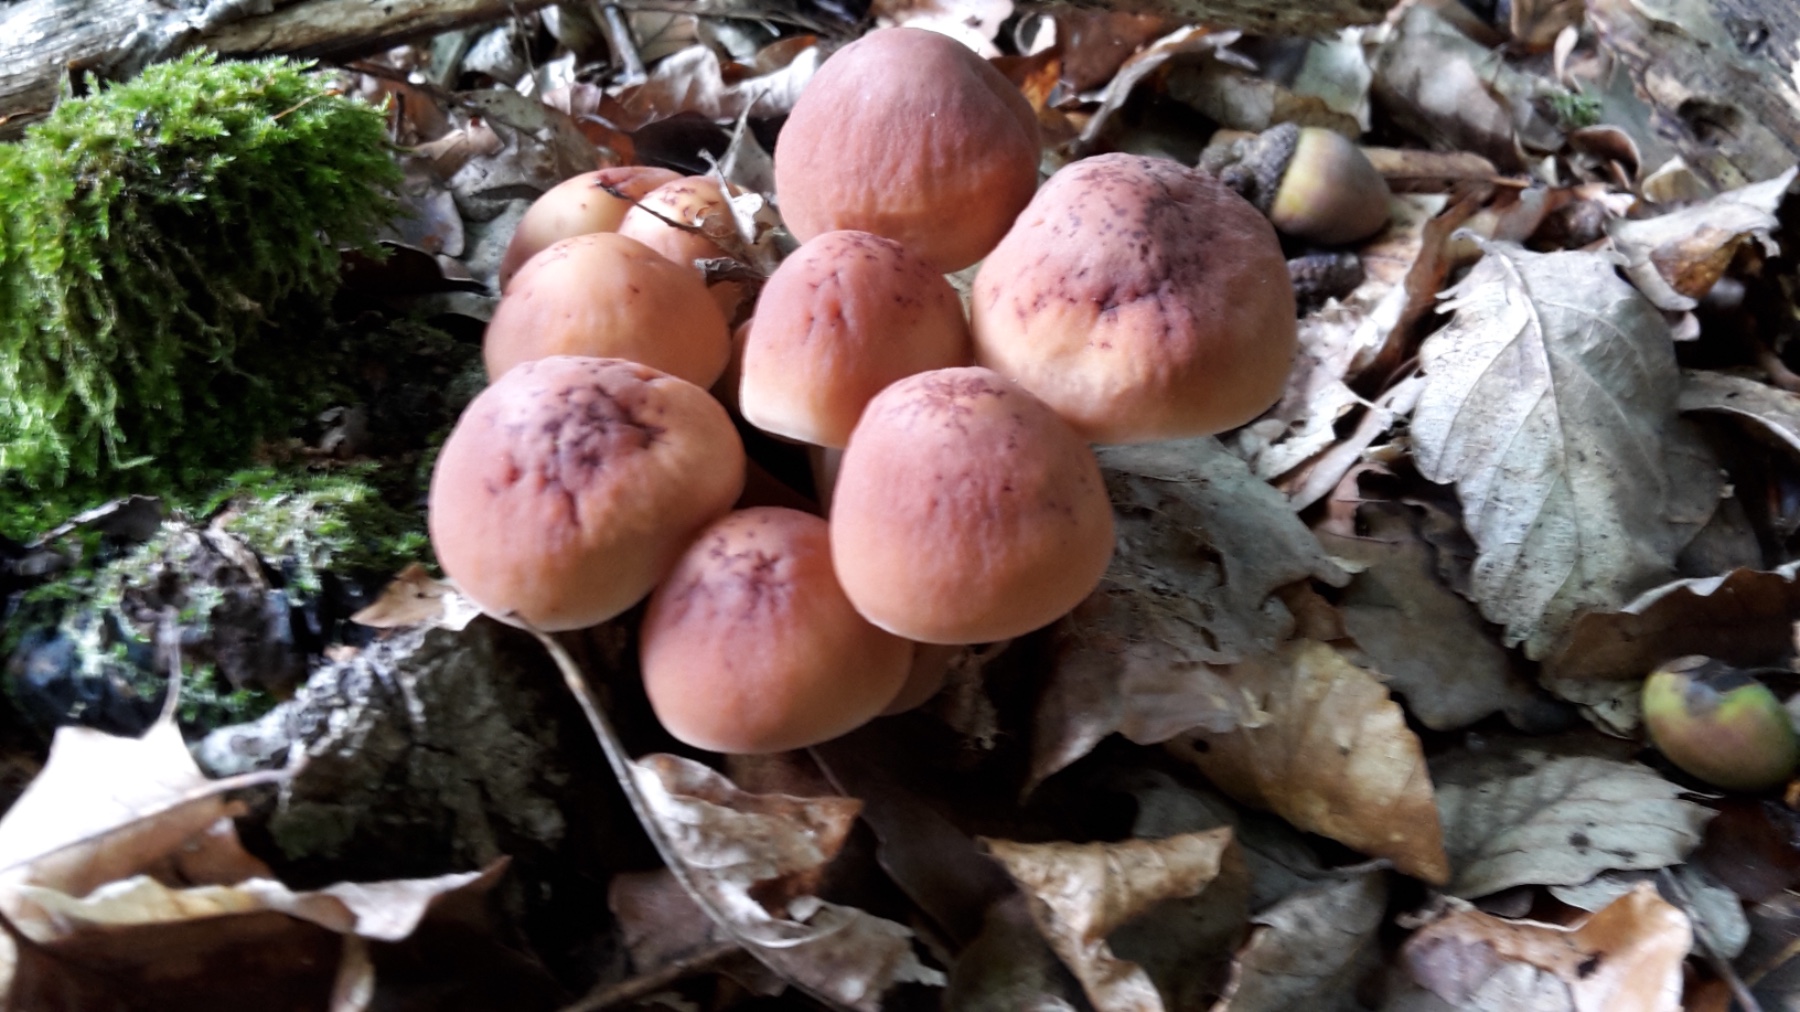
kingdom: Fungi
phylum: Basidiomycota
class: Agaricomycetes
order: Agaricales
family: Omphalotaceae
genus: Gymnopus
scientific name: Gymnopus fusipes
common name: tenstokket fladhat
